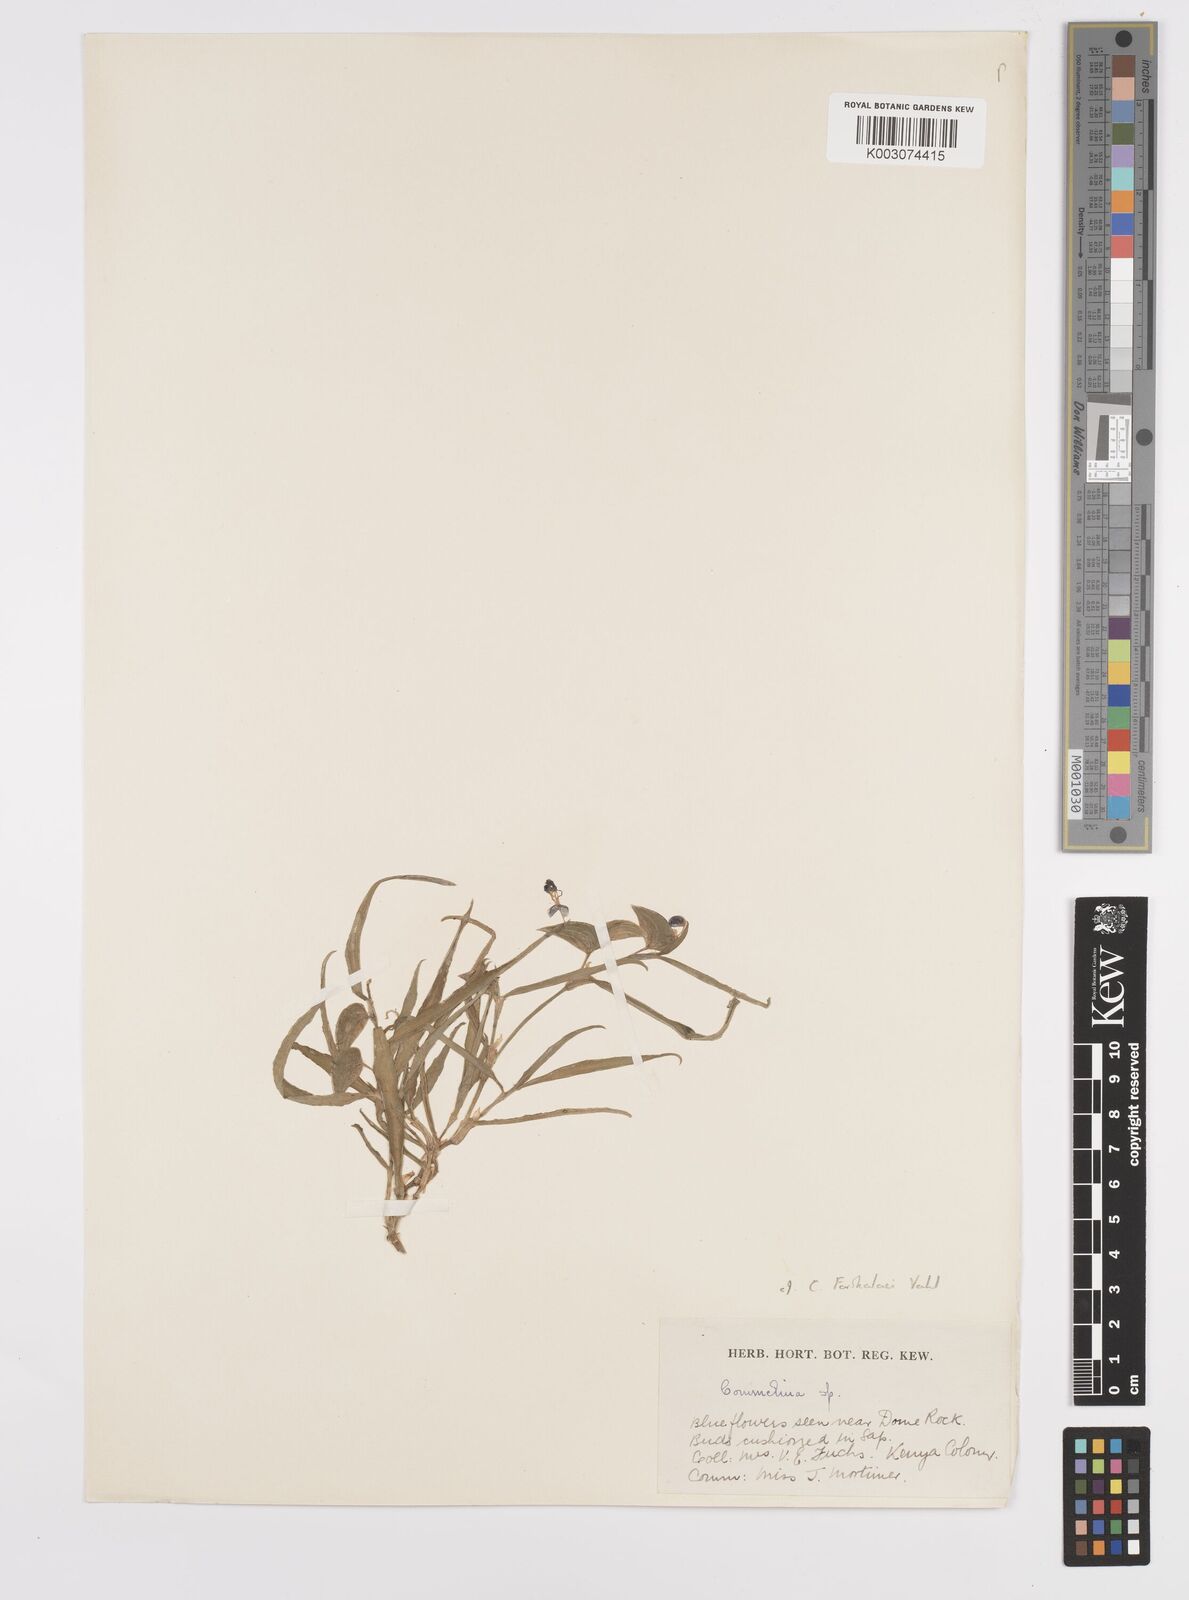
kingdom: Plantae
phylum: Tracheophyta
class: Liliopsida
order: Commelinales
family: Commelinaceae
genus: Commelina
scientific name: Commelina forskaolii
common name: Rat's ear
